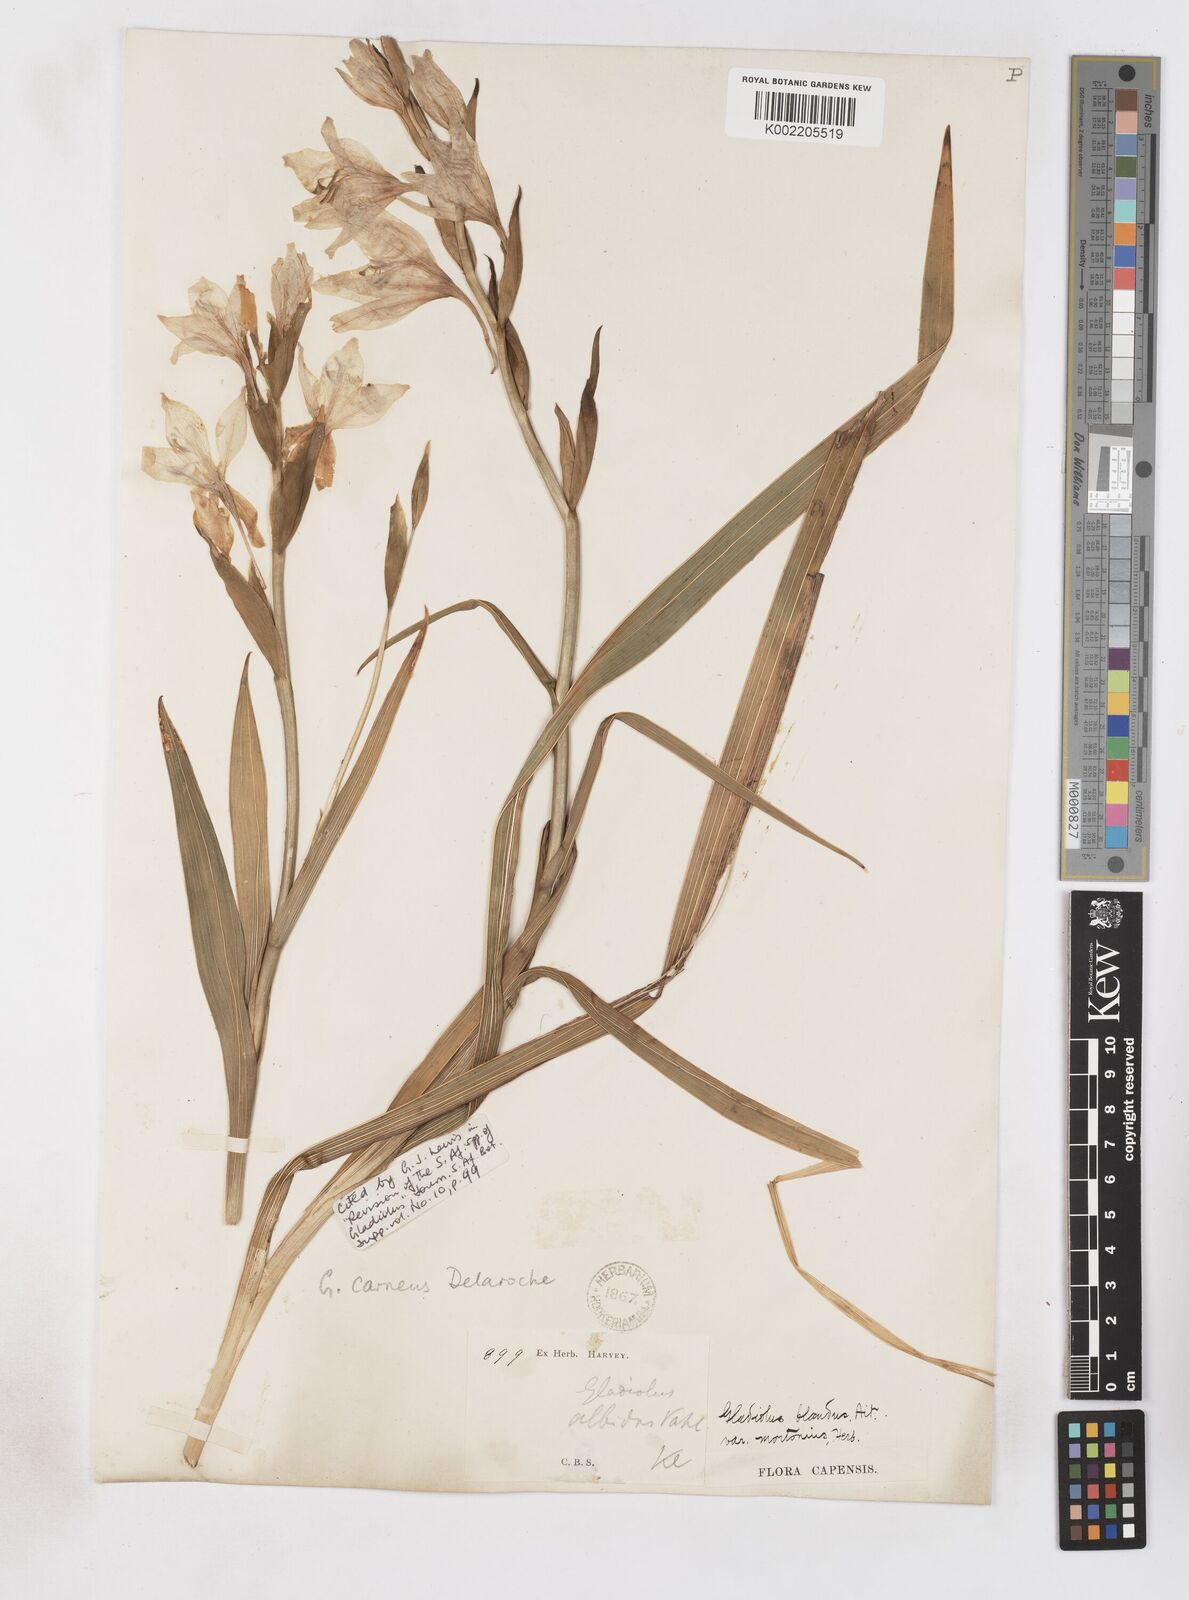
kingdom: Plantae
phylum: Tracheophyta
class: Liliopsida
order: Asparagales
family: Iridaceae
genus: Gladiolus
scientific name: Gladiolus carneus
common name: Painted-lady
